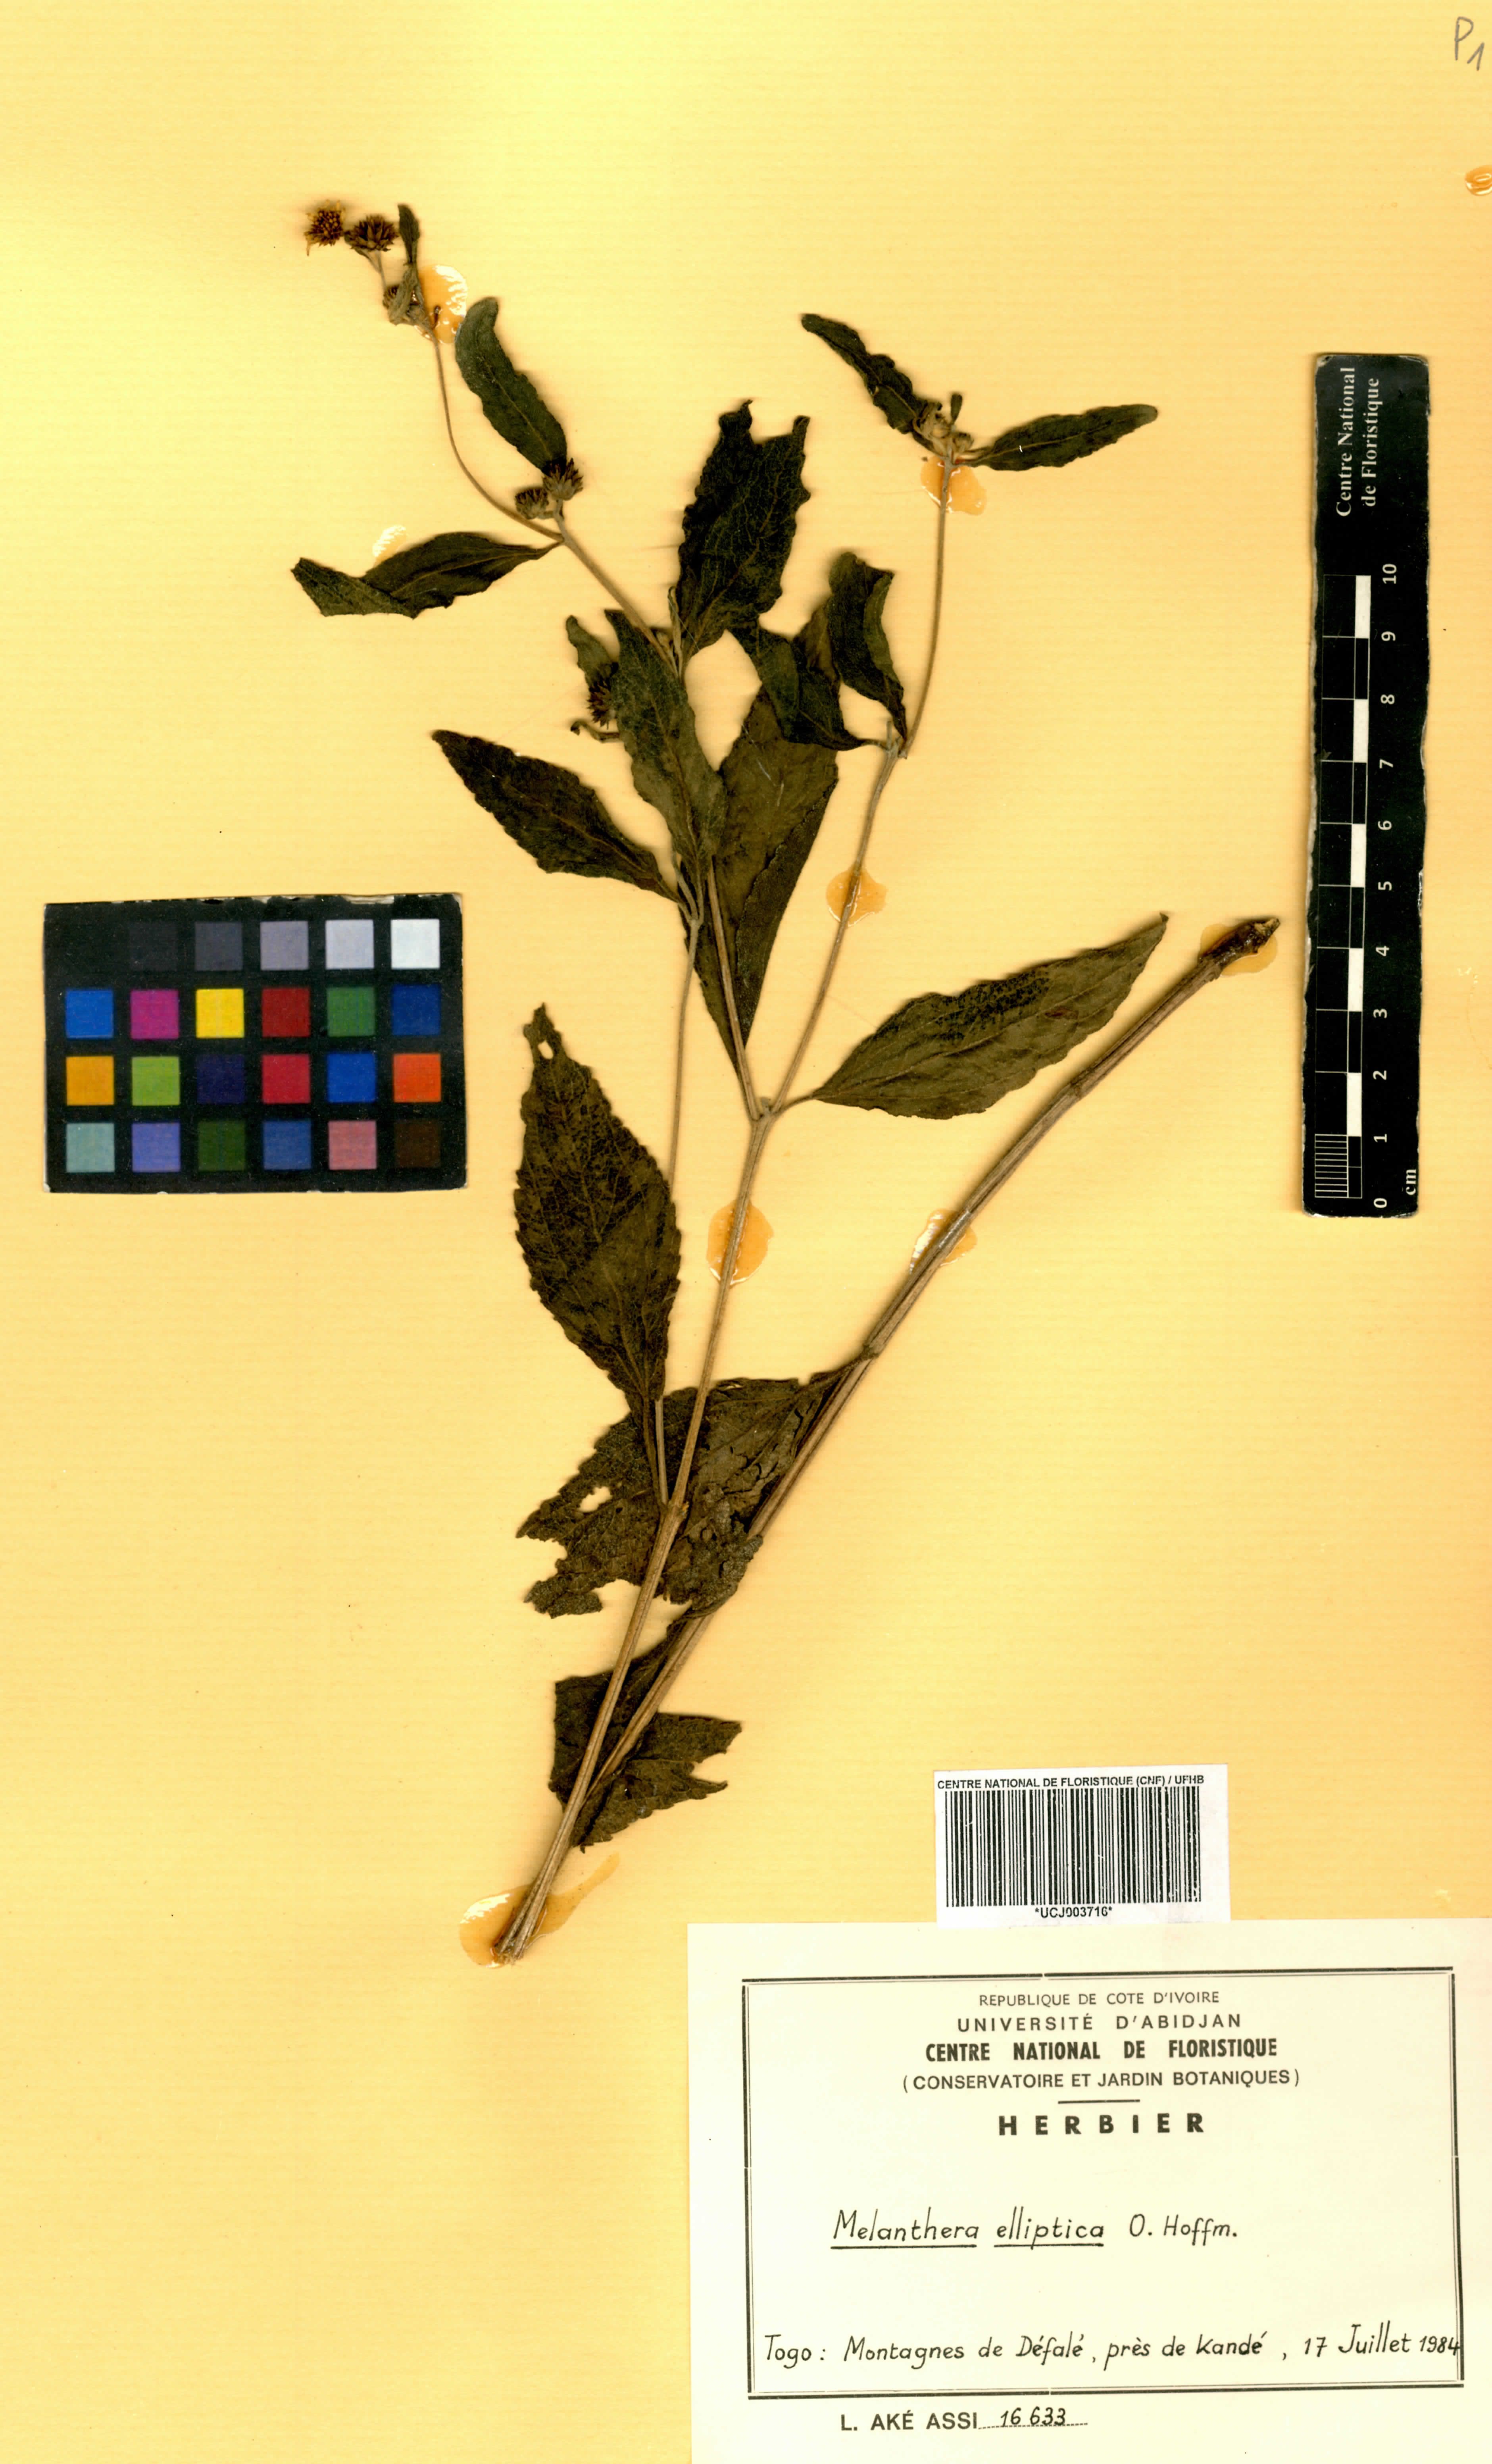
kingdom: Plantae
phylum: Tracheophyta
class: Magnoliopsida
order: Asterales
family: Asteraceae
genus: Lipotriche
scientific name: Lipotriche elliptica
